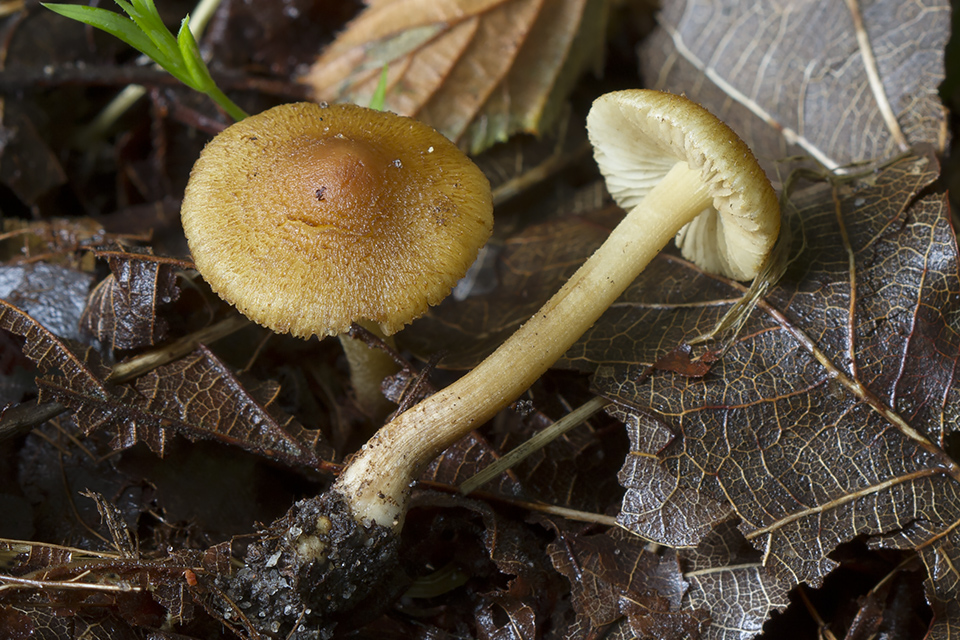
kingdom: Fungi
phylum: Basidiomycota
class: Agaricomycetes
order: Agaricales
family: Inocybaceae
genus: Inocybe
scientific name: Inocybe pholiotinoides
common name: dansende trævlhat
